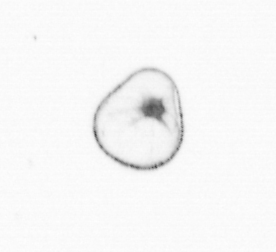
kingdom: Chromista
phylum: Myzozoa
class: Dinophyceae
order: Noctilucales
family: Noctilucaceae
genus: Noctiluca
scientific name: Noctiluca scintillans
